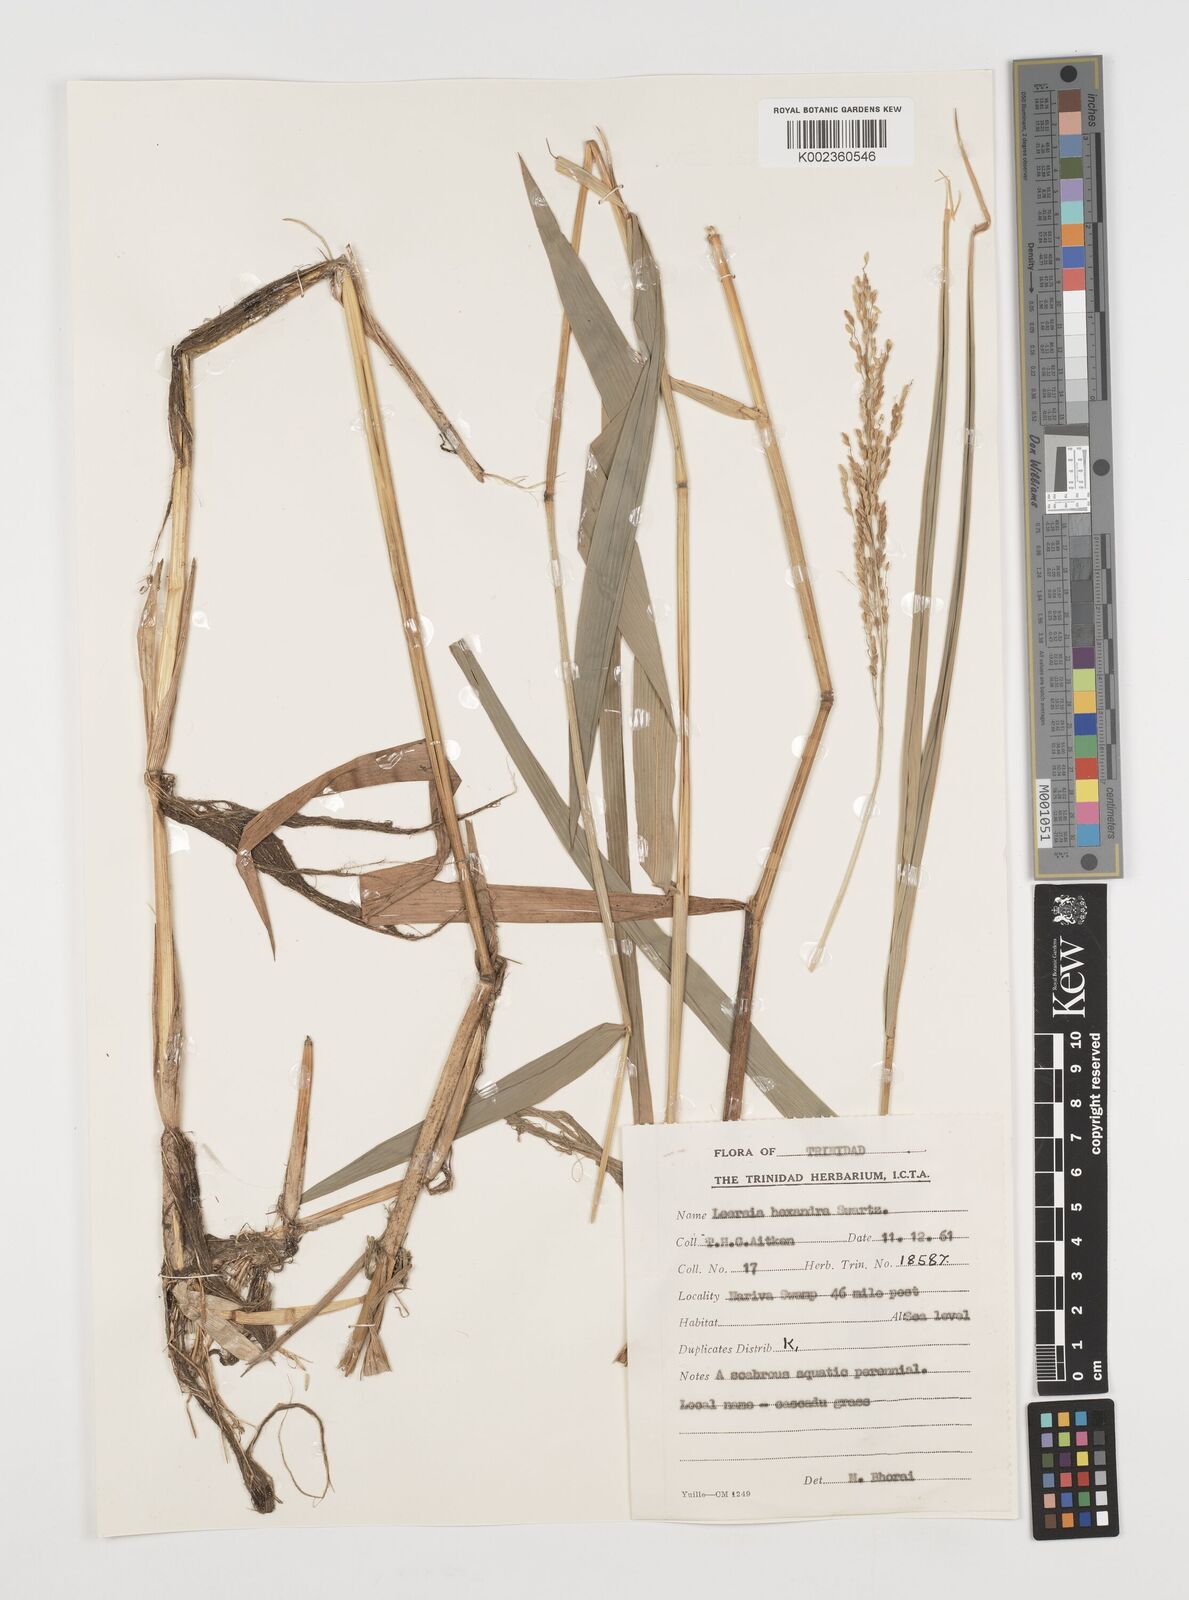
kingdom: Plantae
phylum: Tracheophyta
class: Liliopsida
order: Poales
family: Poaceae
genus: Leersia
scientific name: Leersia hexandra
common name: Southern cut grass
